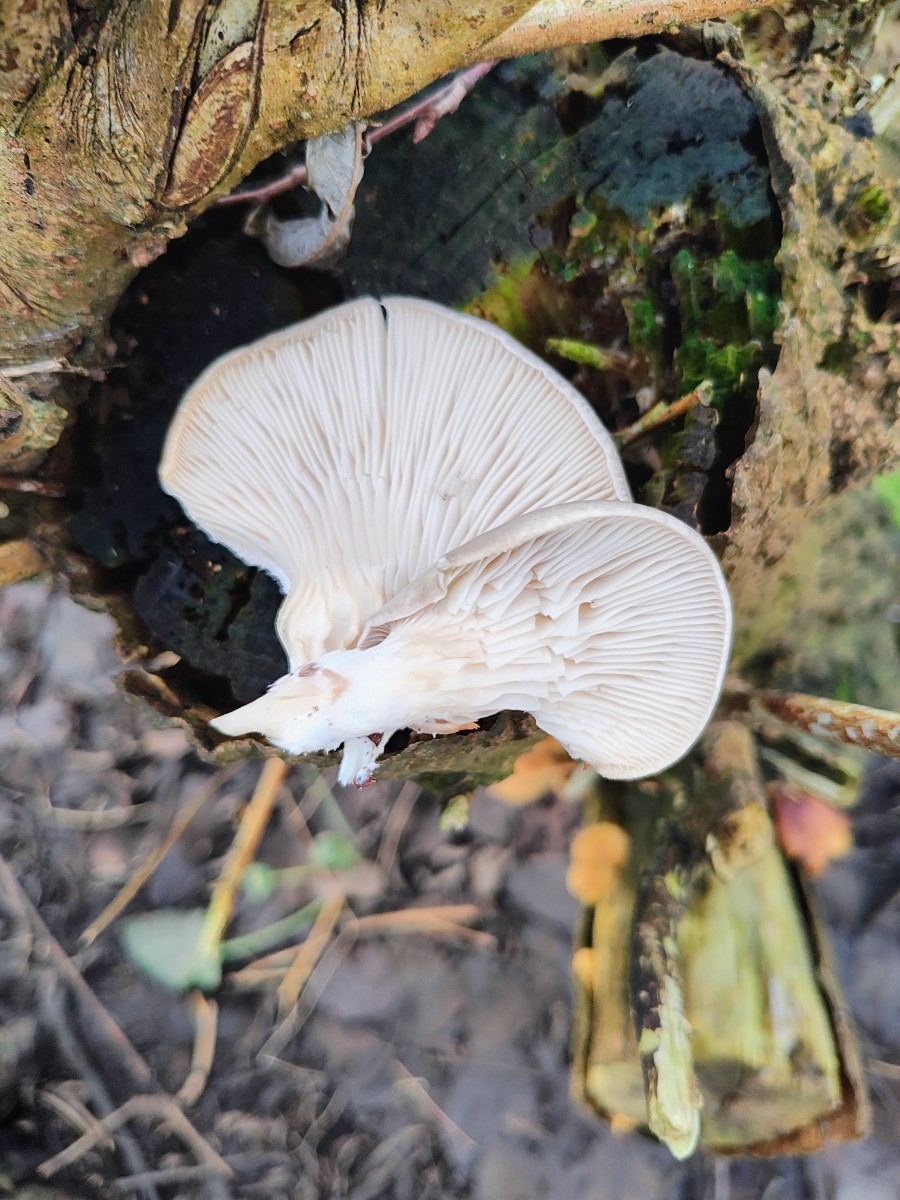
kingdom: Fungi
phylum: Basidiomycota
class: Agaricomycetes
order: Agaricales
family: Pleurotaceae
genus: Pleurotus
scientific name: Pleurotus ostreatus
